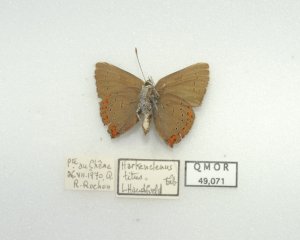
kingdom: Animalia
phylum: Arthropoda
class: Insecta
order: Lepidoptera
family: Lycaenidae
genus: Harkenclenus
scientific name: Harkenclenus titus
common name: Coral Hairstreak
